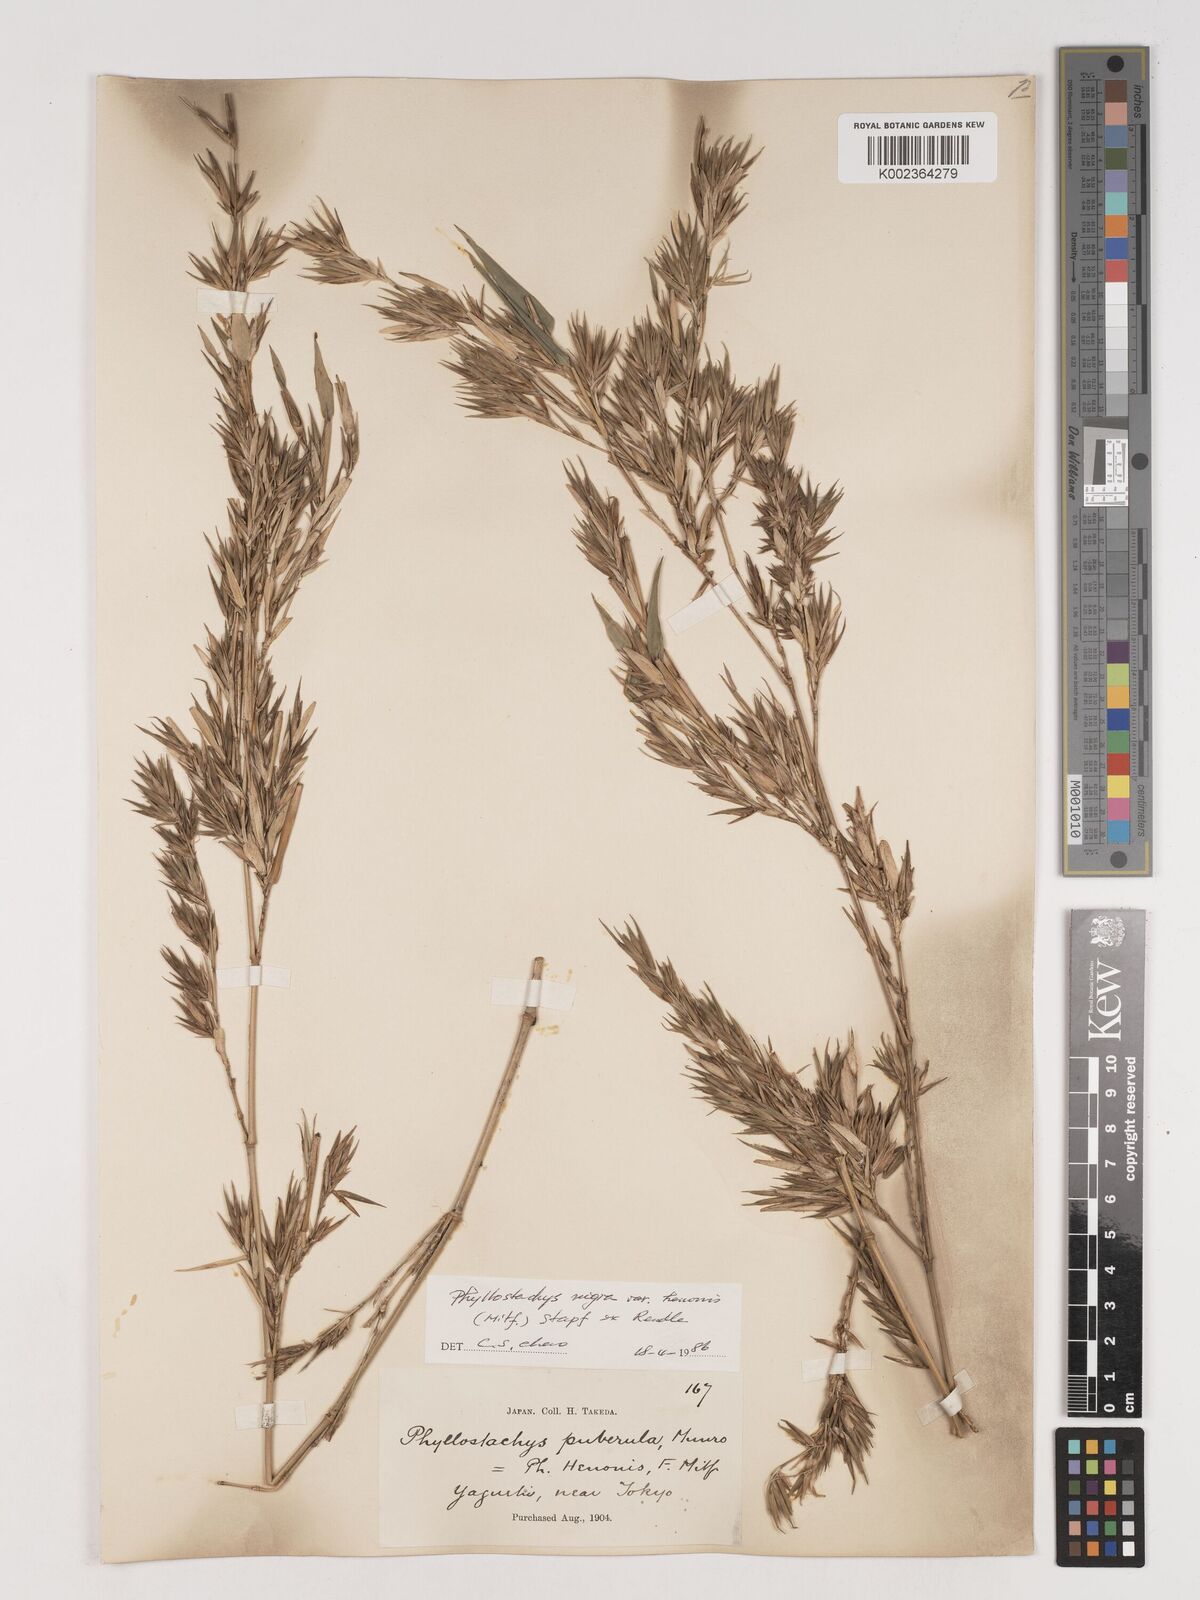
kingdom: Plantae
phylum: Tracheophyta
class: Liliopsida
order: Poales
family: Poaceae
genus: Phyllostachys
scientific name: Phyllostachys nigra
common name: Black bamboo
